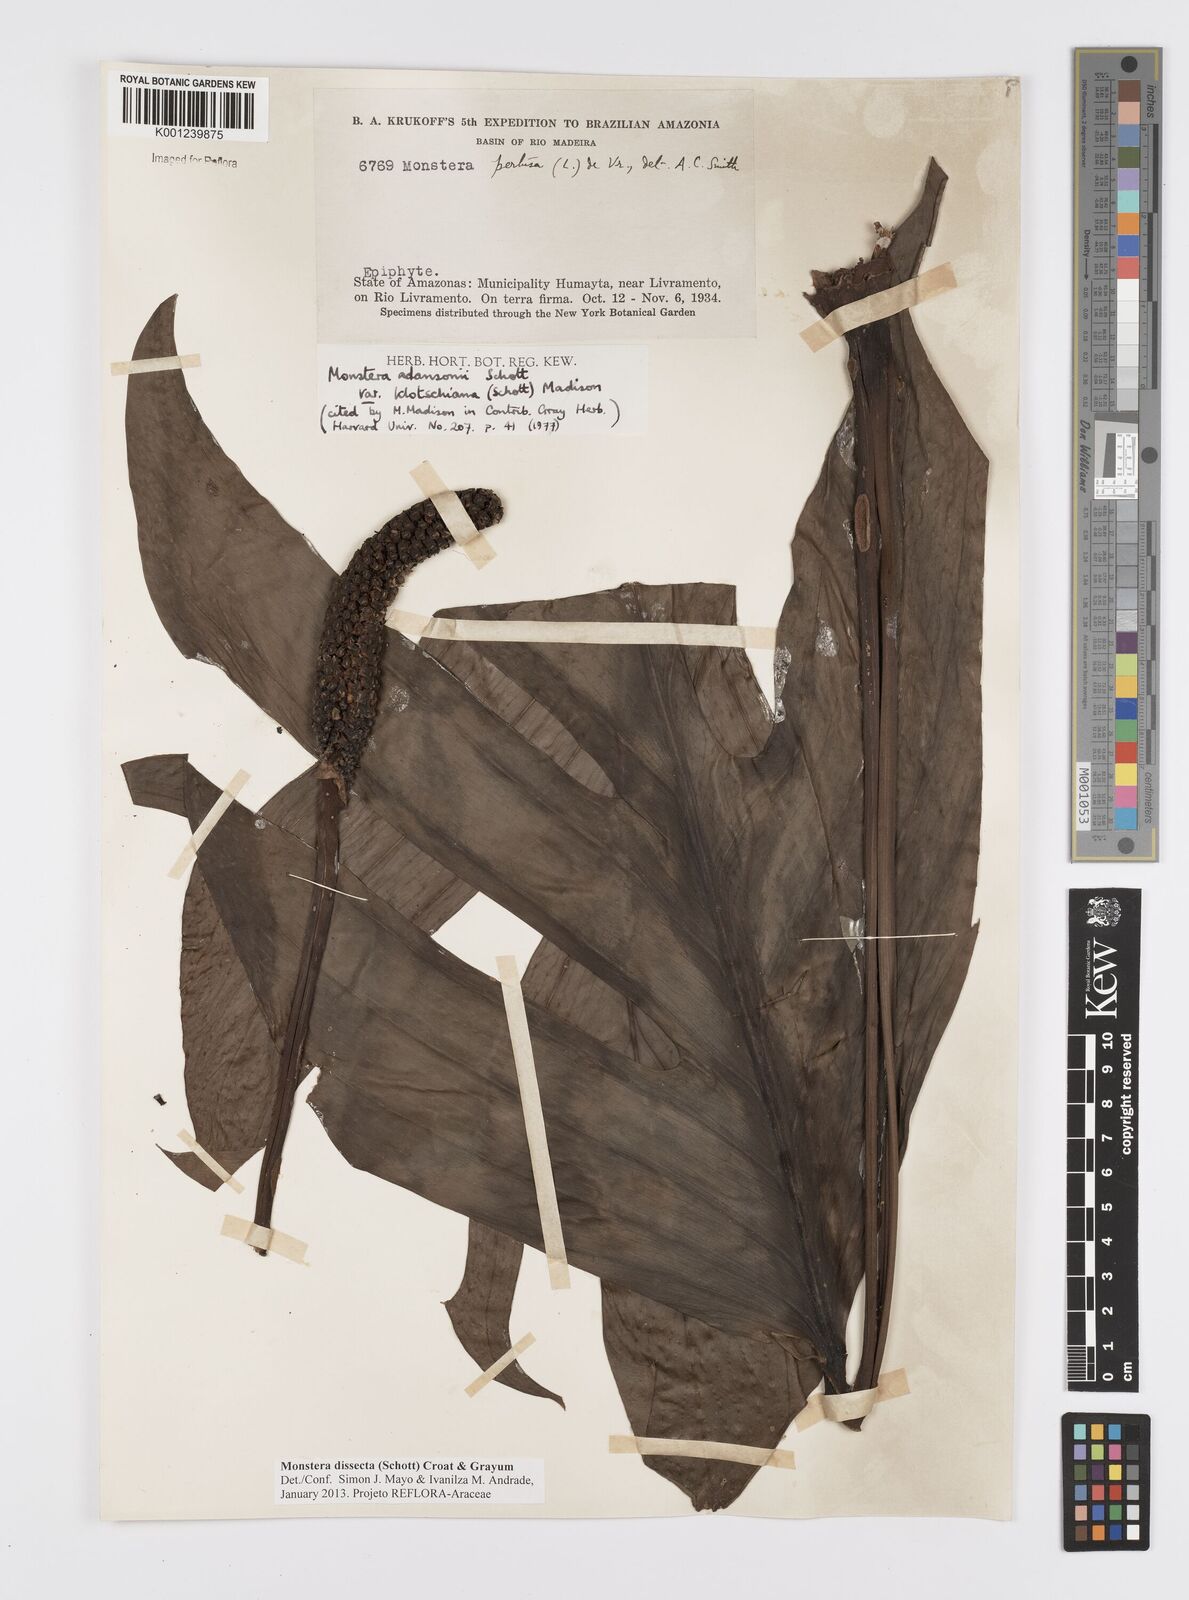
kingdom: Plantae
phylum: Tracheophyta
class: Liliopsida
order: Alismatales
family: Araceae
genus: Monstera
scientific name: Monstera dissecta
